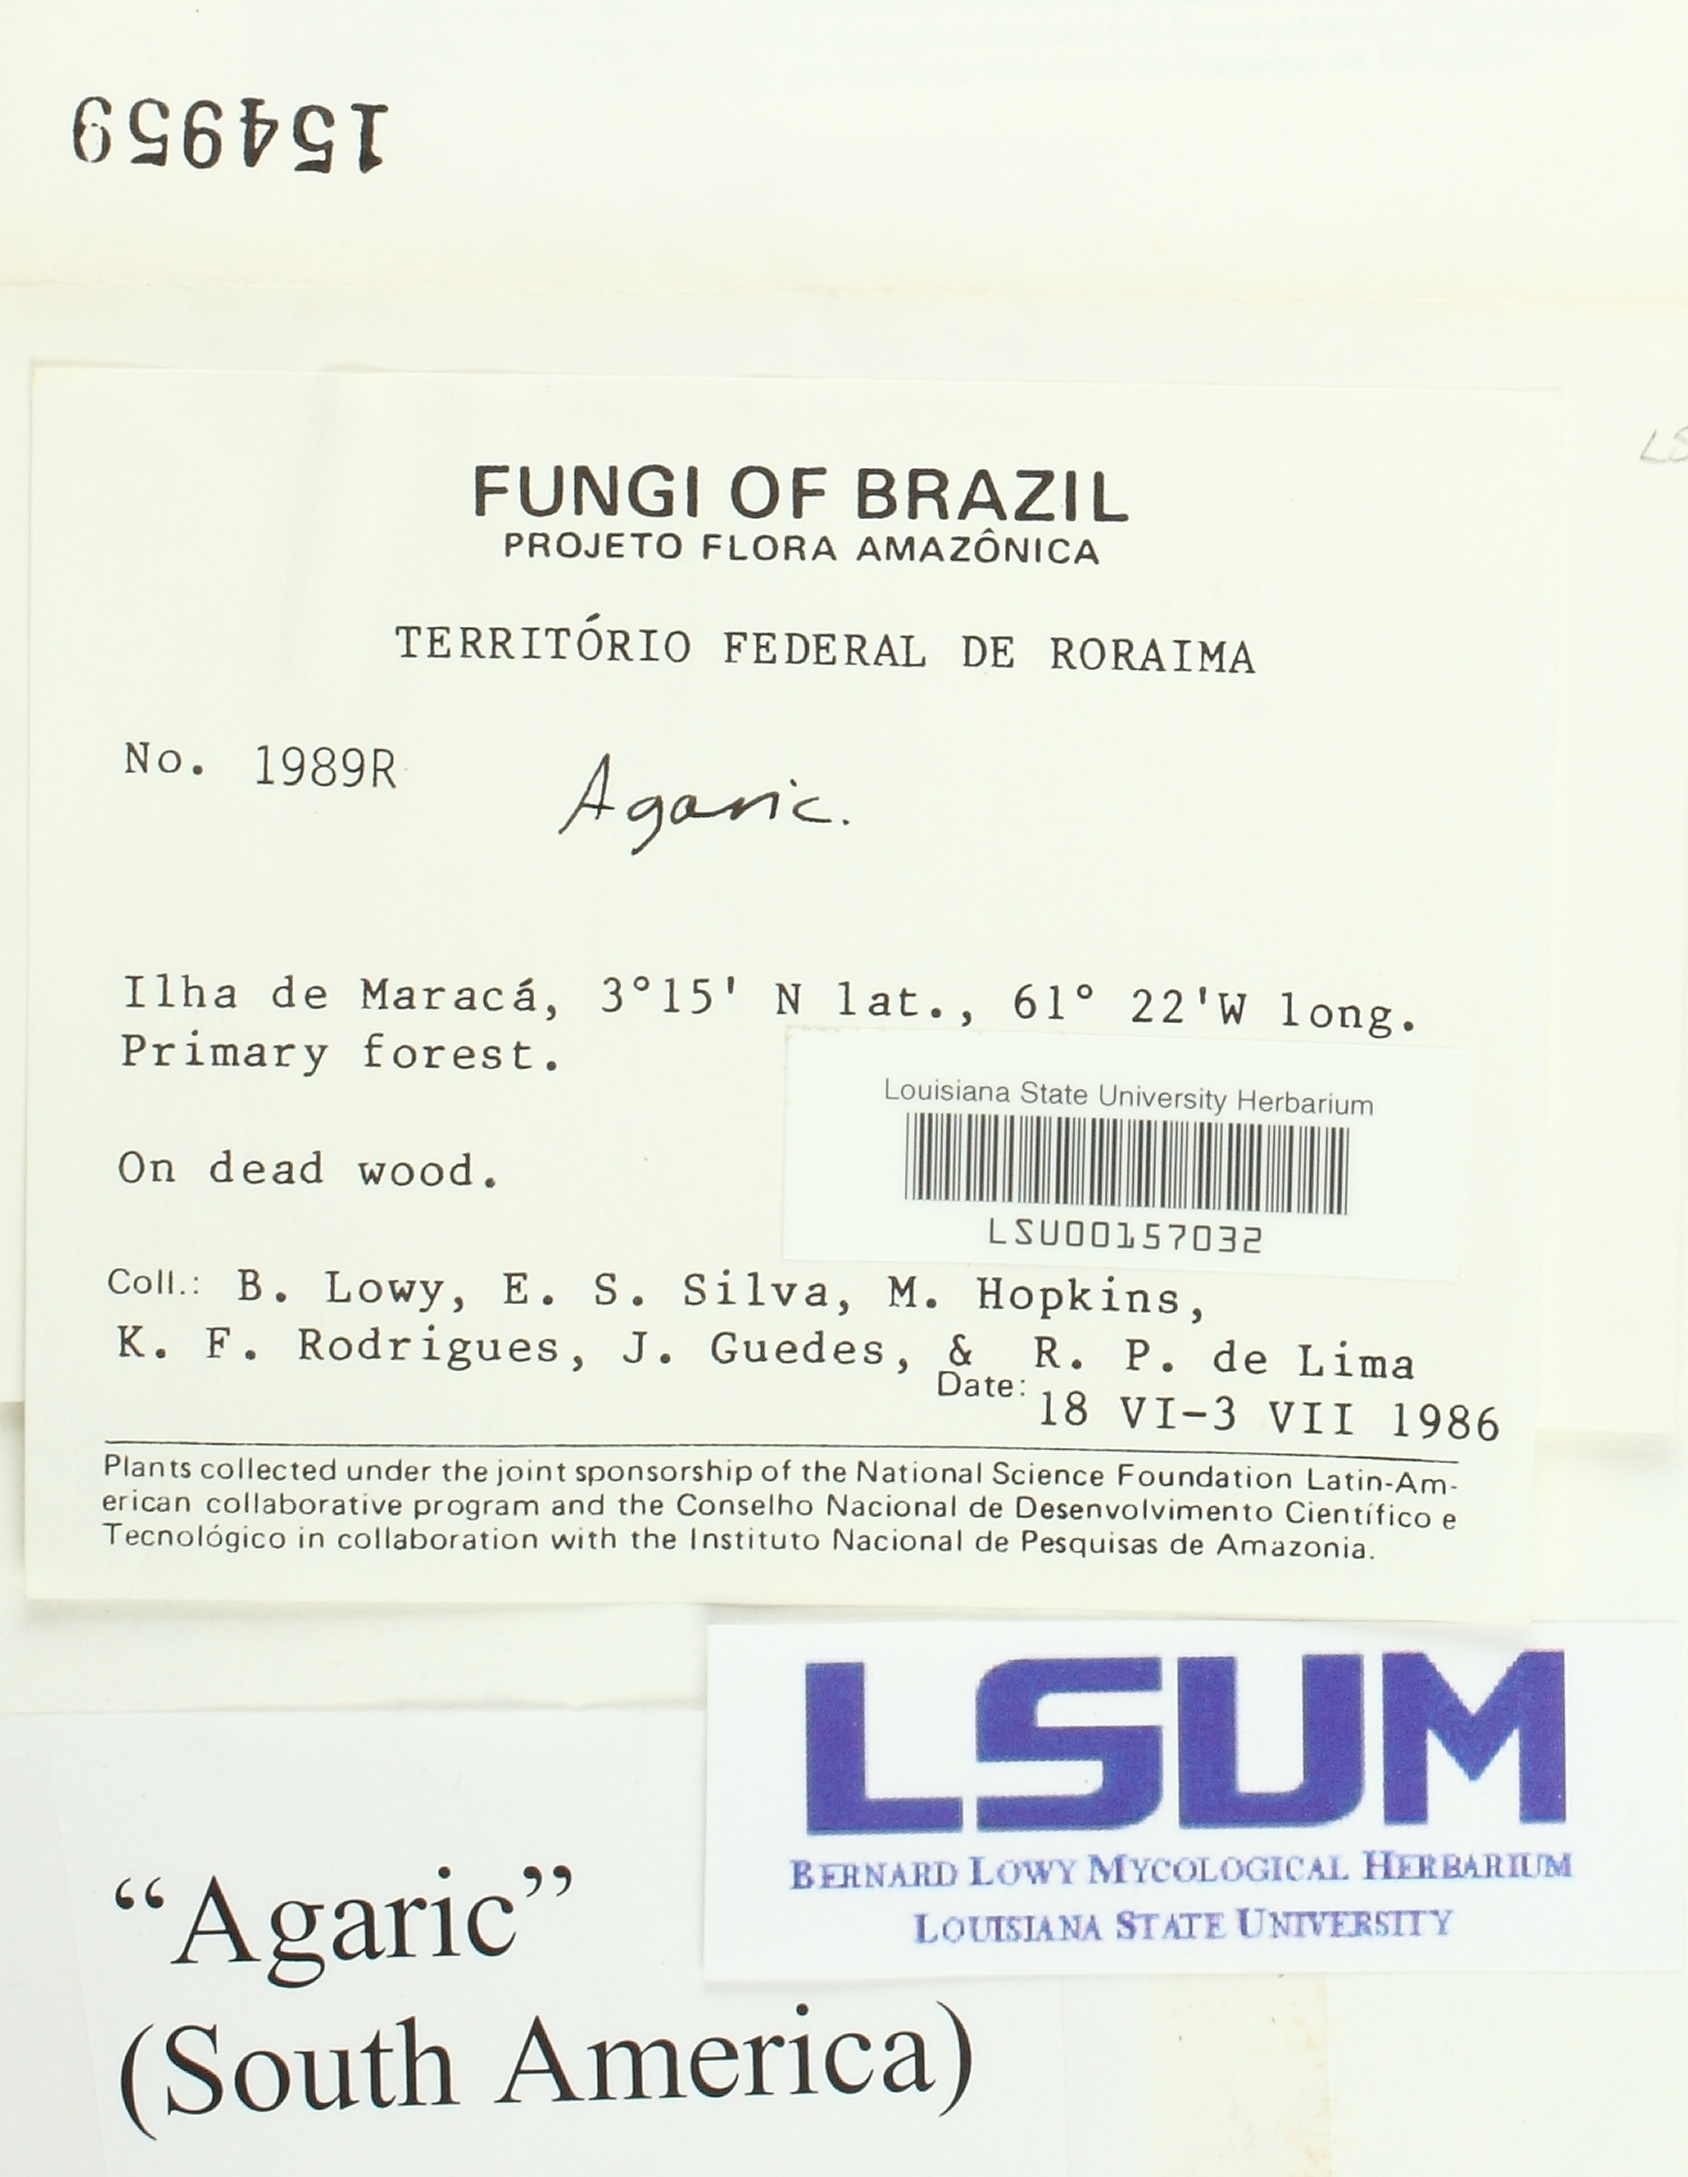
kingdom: Fungi
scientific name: Fungi
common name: Fungi
